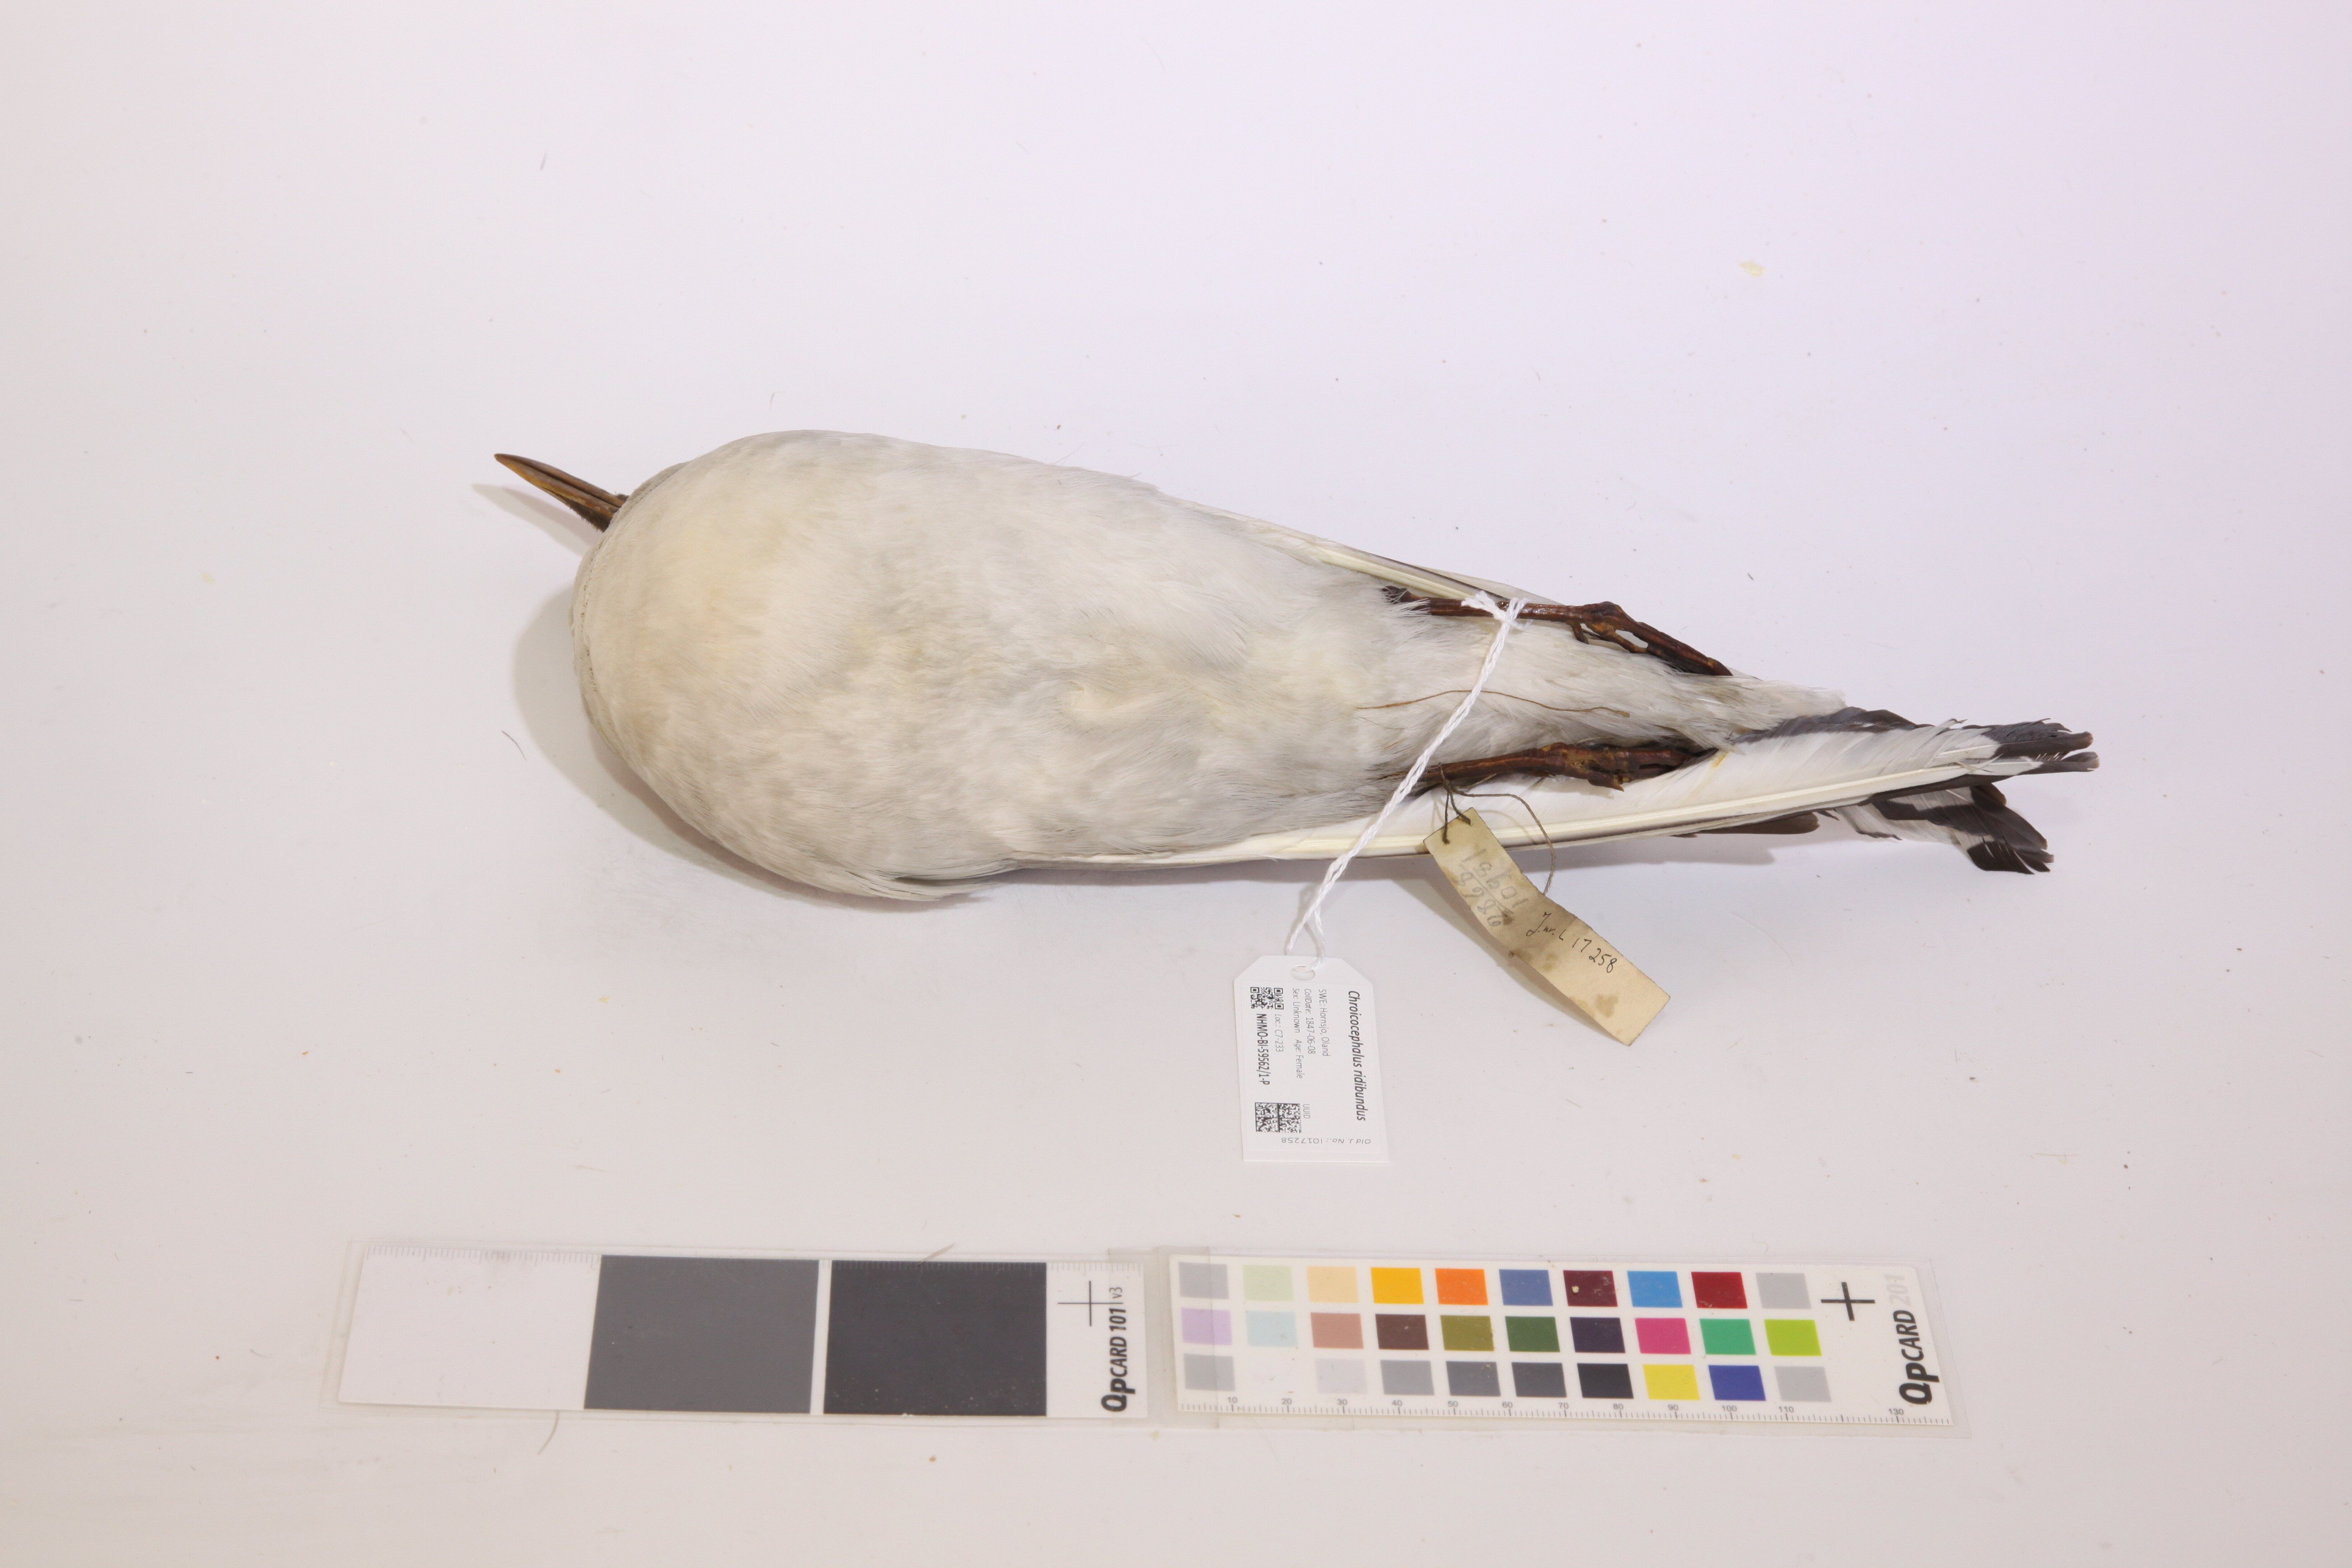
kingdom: Animalia
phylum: Chordata
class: Aves
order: Charadriiformes
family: Laridae
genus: Chroicocephalus
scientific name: Chroicocephalus ridibundus
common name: Black-headed gull
